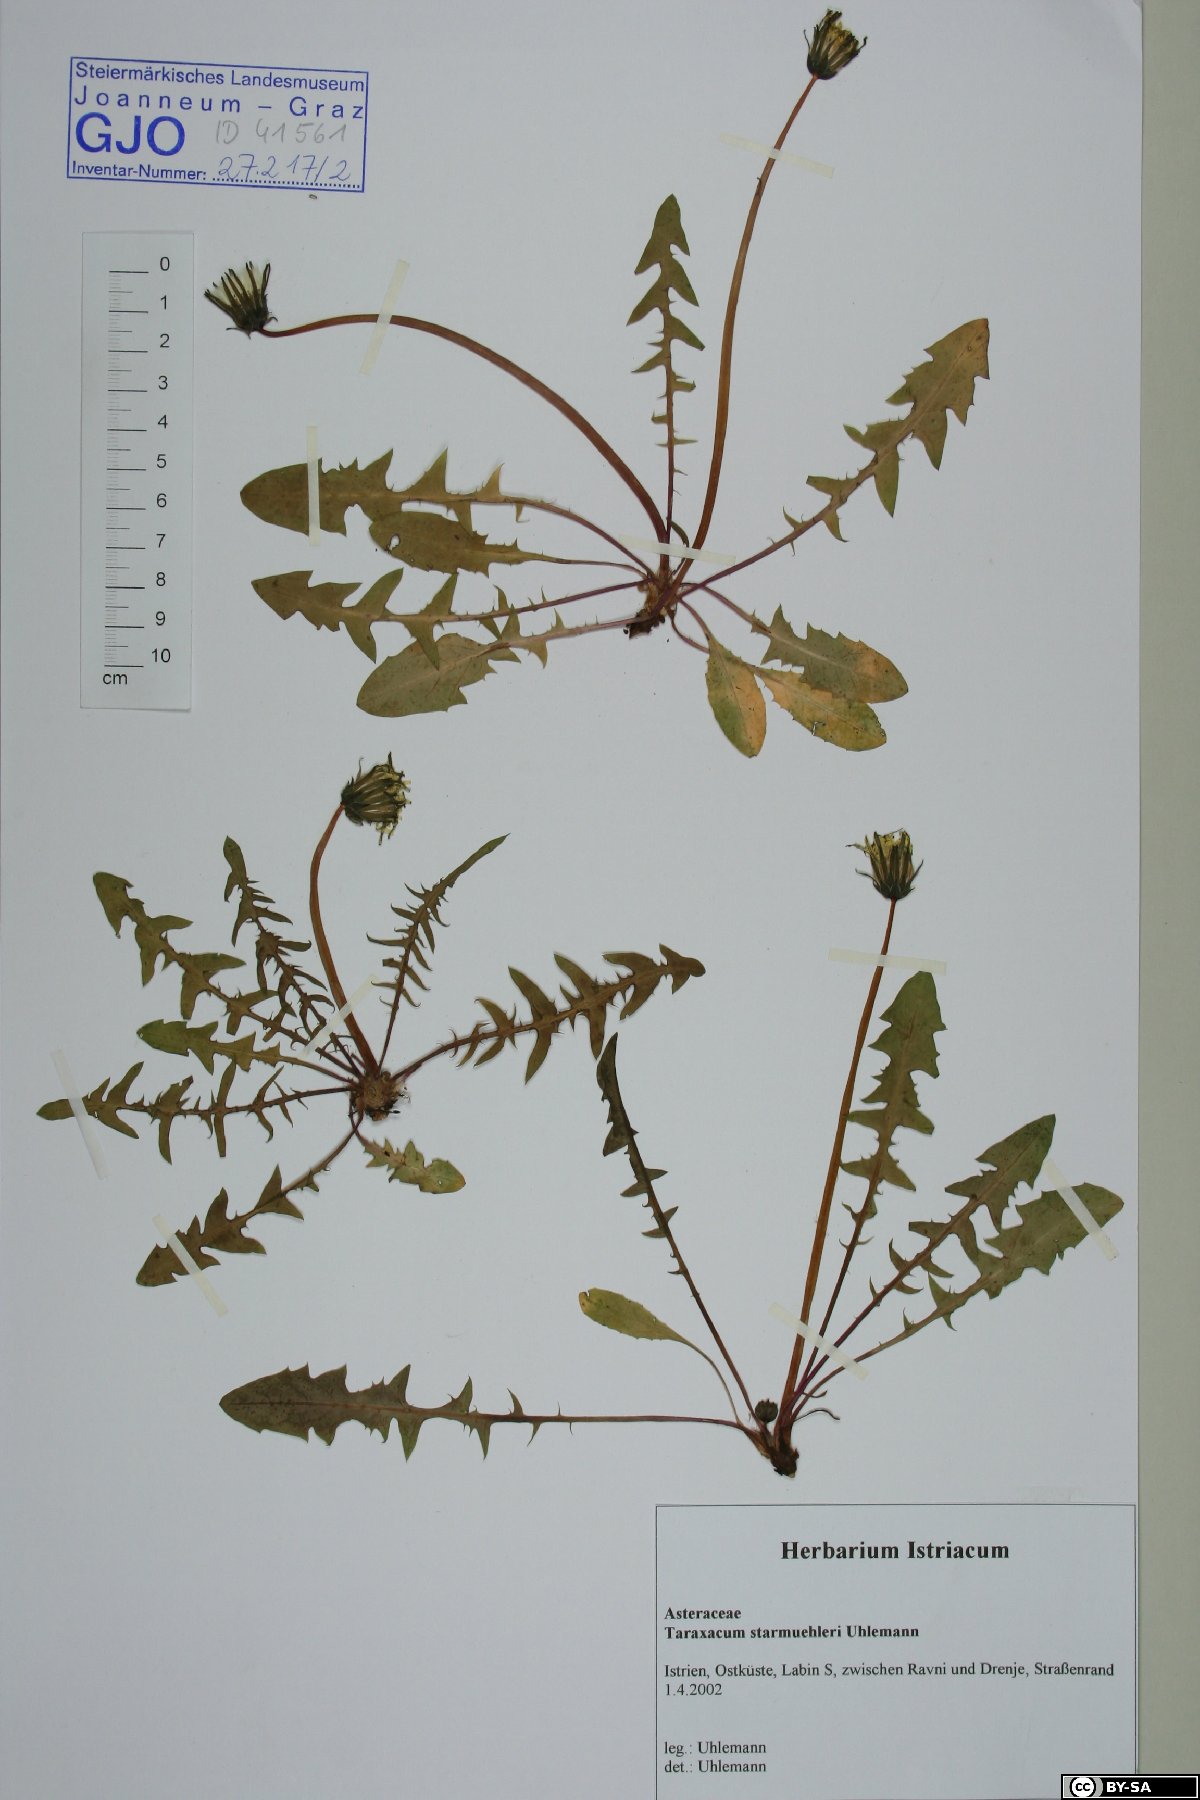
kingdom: Plantae
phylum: Tracheophyta
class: Magnoliopsida
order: Asterales
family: Asteraceae
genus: Taraxacum
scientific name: Taraxacum starmuehleri
